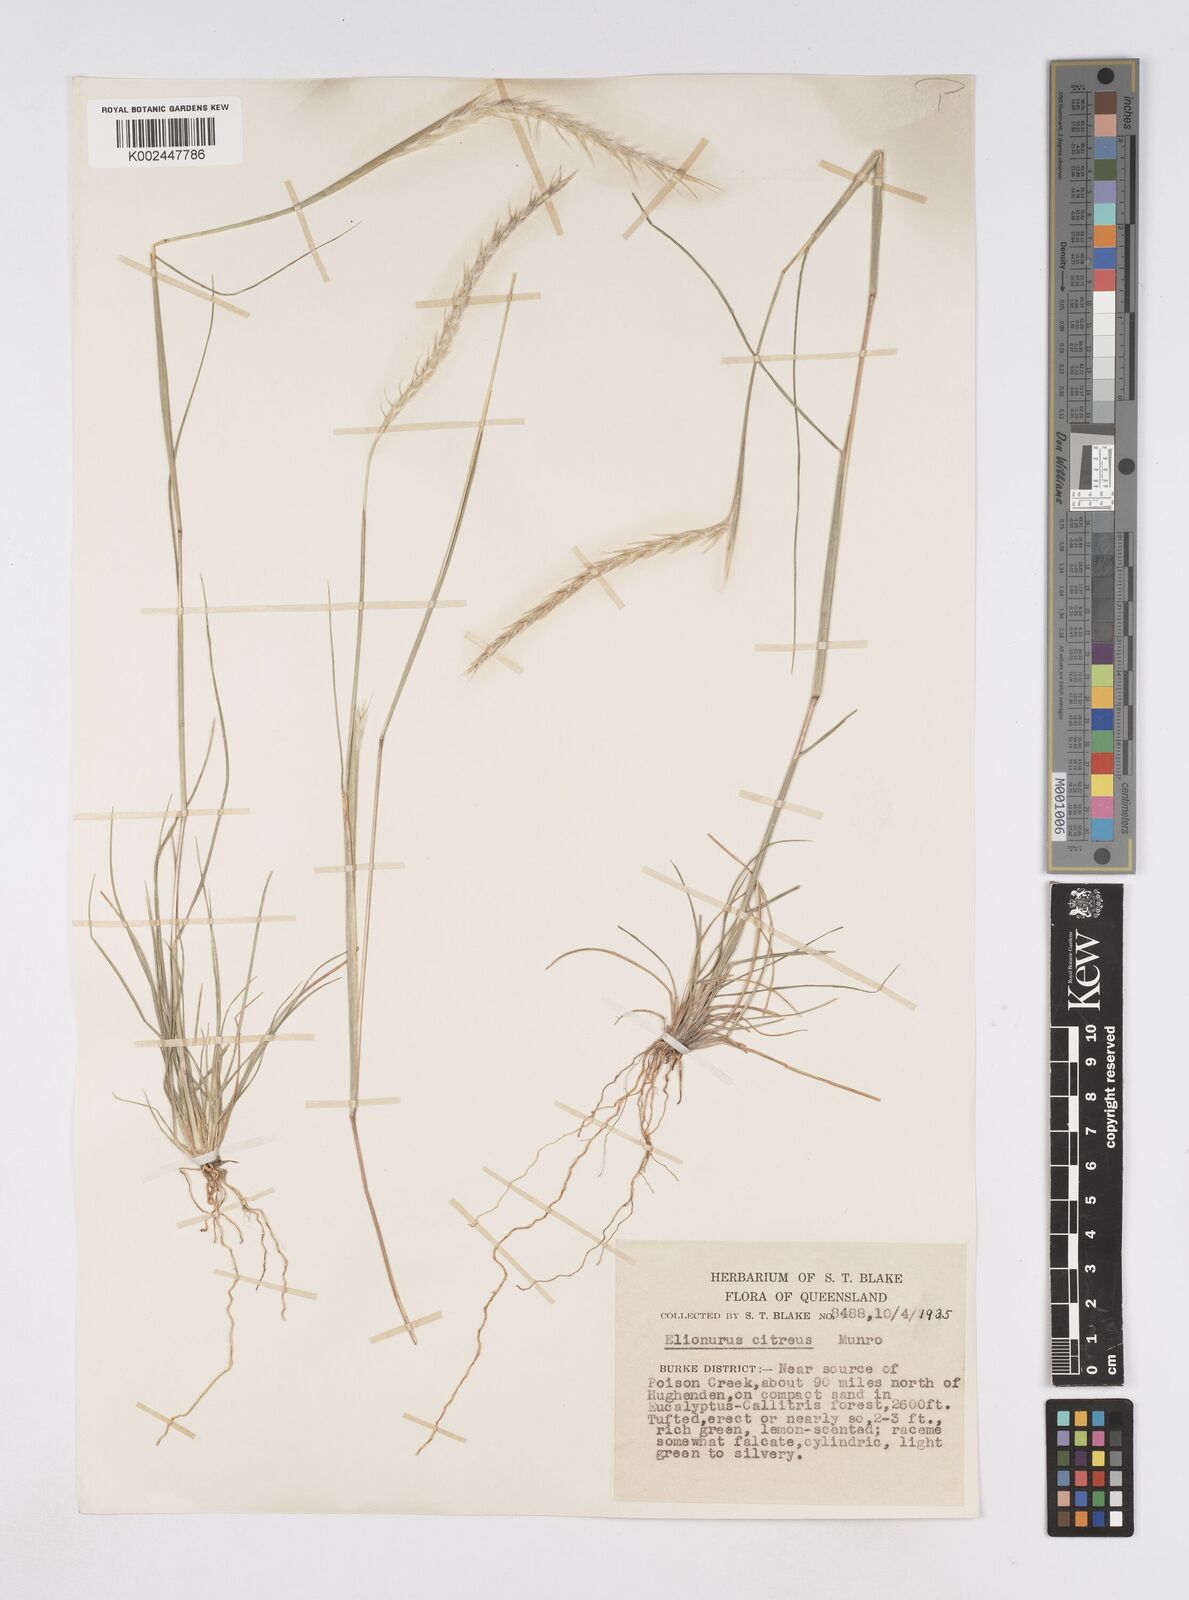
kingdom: Plantae
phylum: Tracheophyta
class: Liliopsida
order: Poales
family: Poaceae
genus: Elionurus
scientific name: Elionurus citreus
